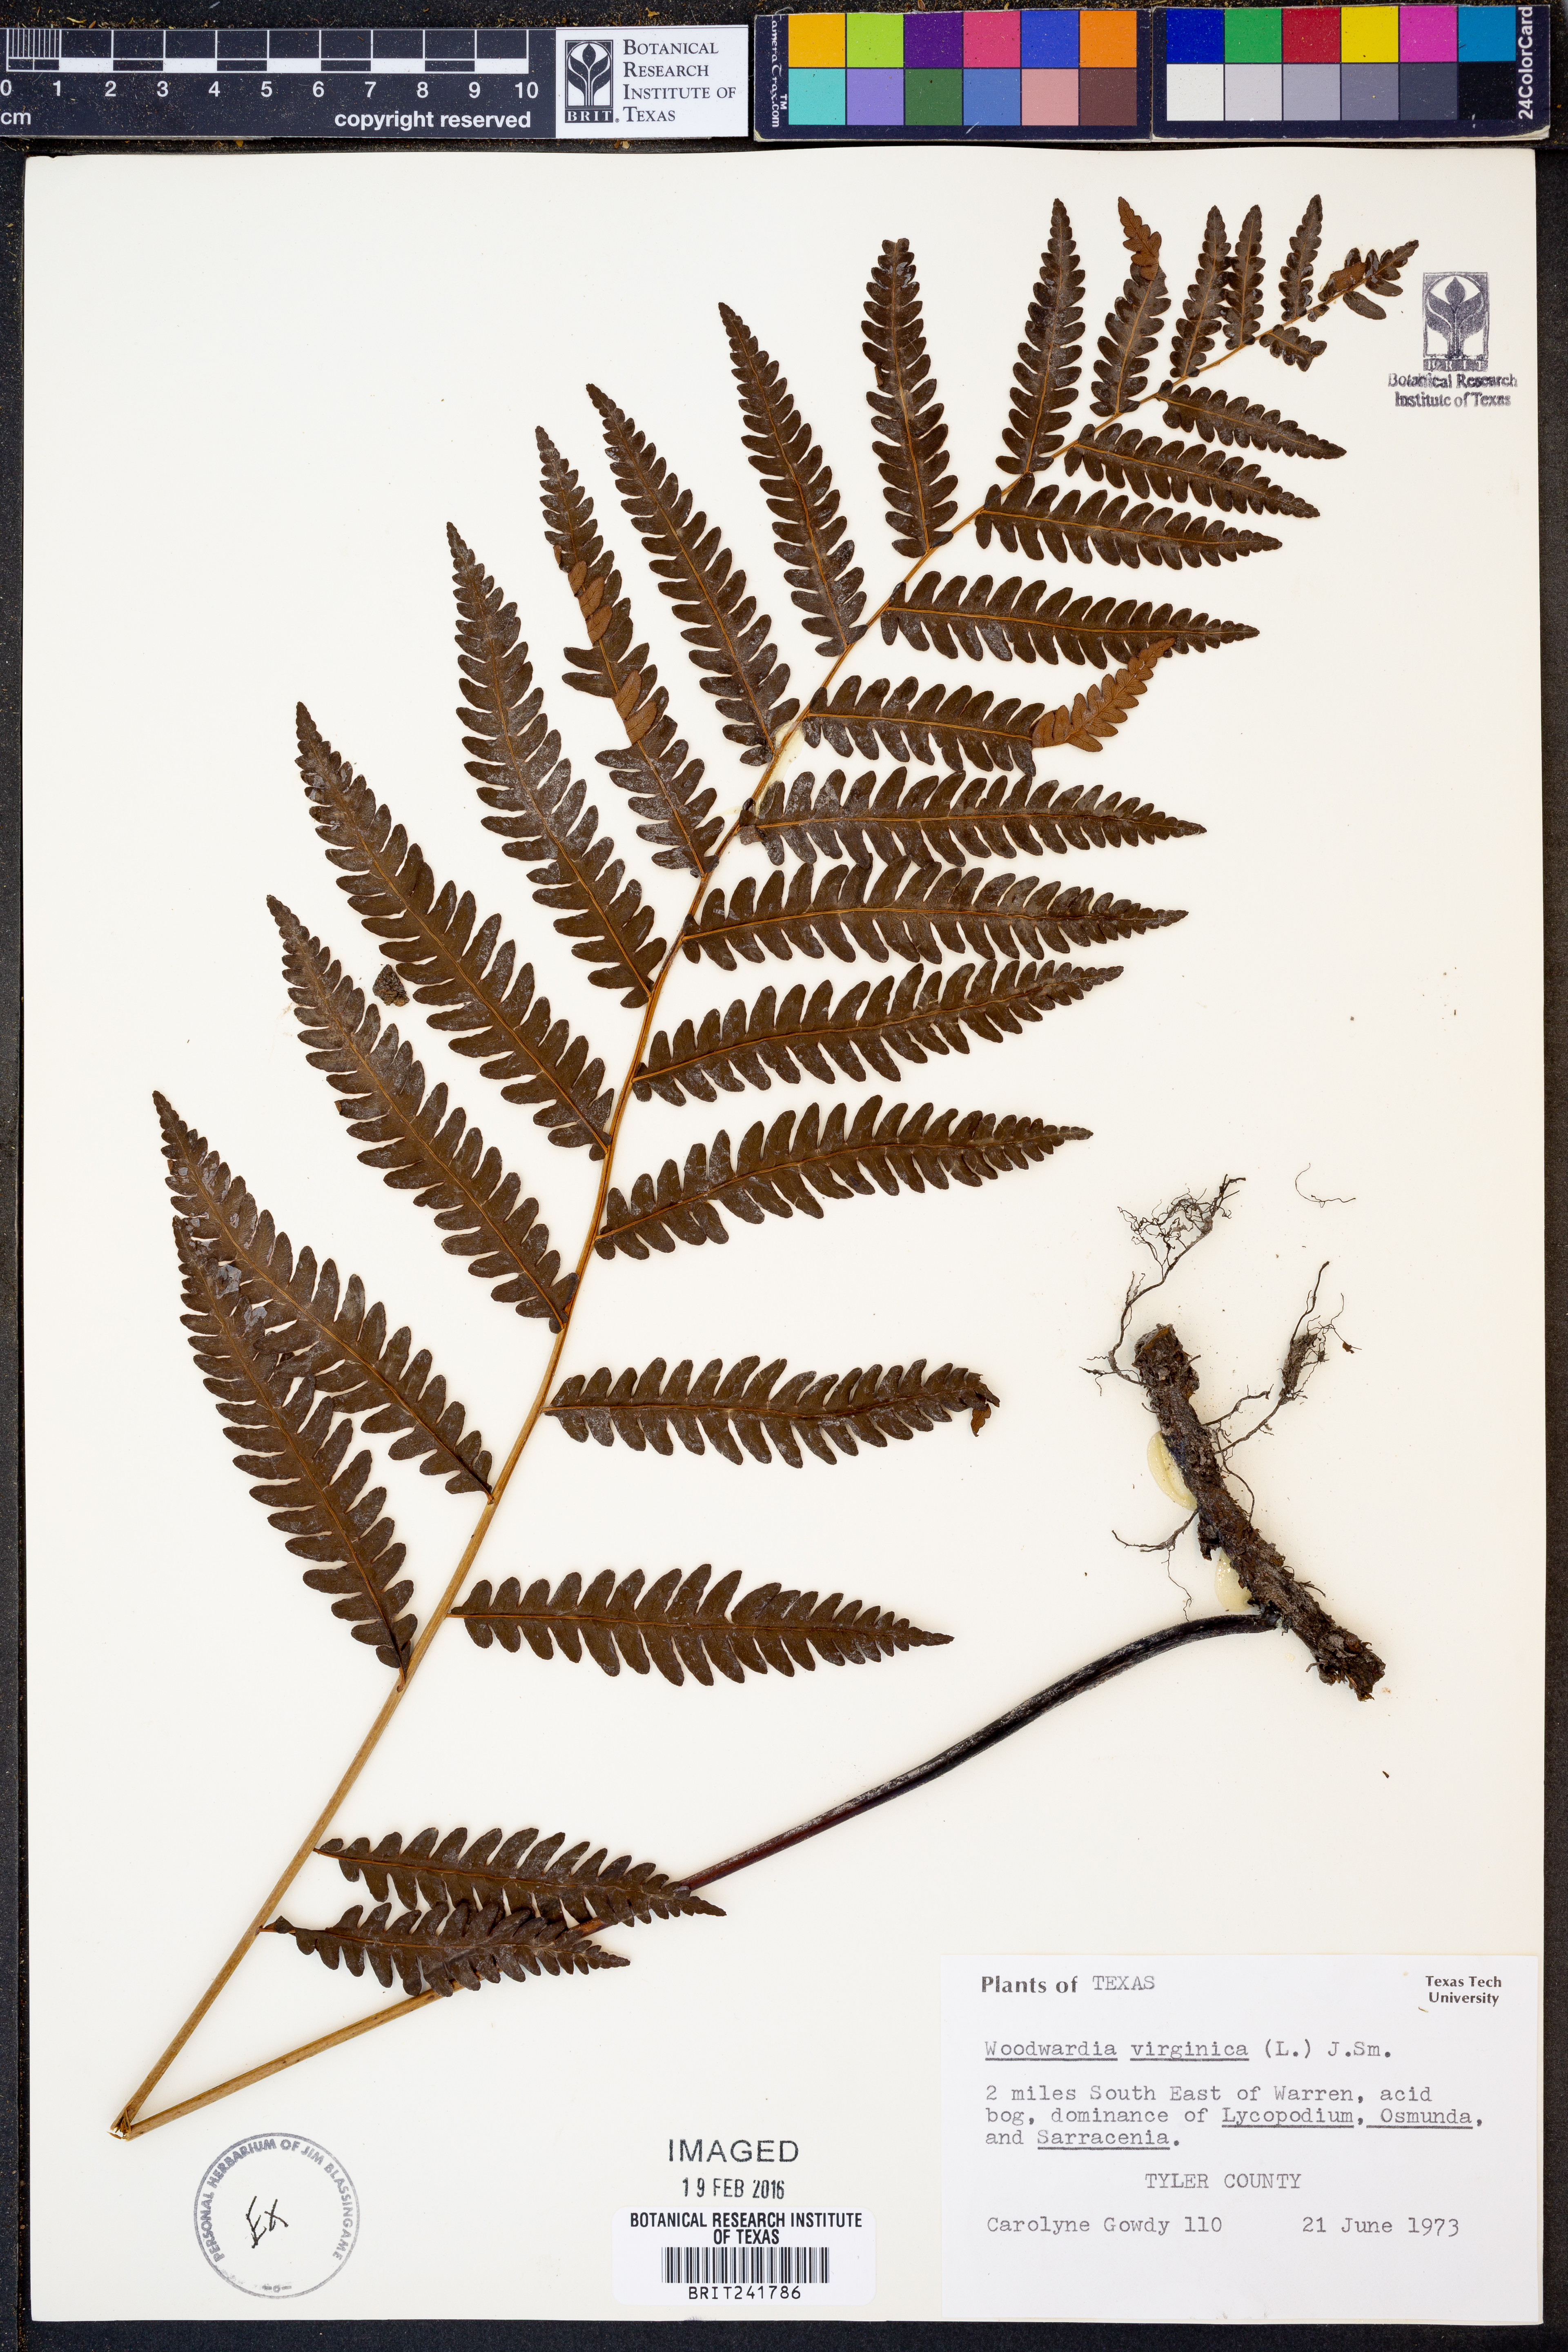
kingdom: Plantae
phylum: Tracheophyta
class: Polypodiopsida
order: Polypodiales
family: Blechnaceae
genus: Anchistea
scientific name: Anchistea virginica
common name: Virginia chain fern
